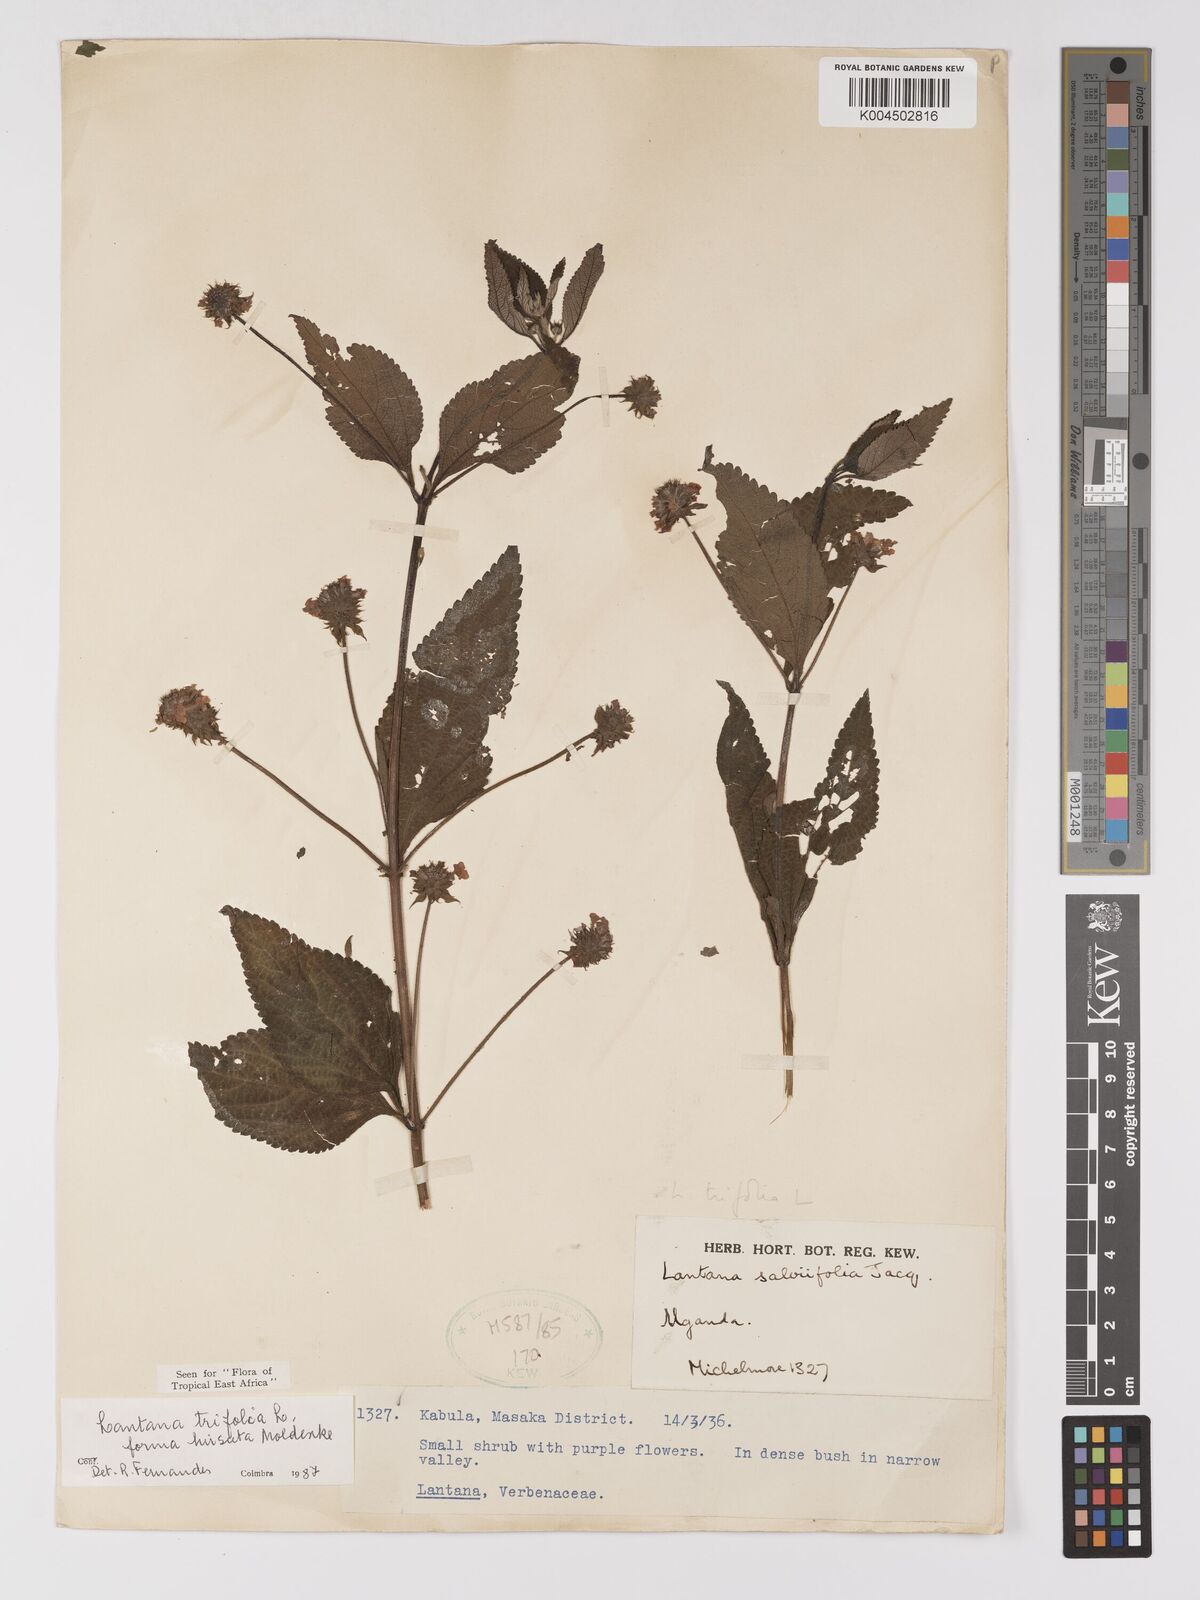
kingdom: Plantae
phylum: Tracheophyta
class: Magnoliopsida
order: Lamiales
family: Verbenaceae
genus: Lantana
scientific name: Lantana trifolia
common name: Sweet-sage
